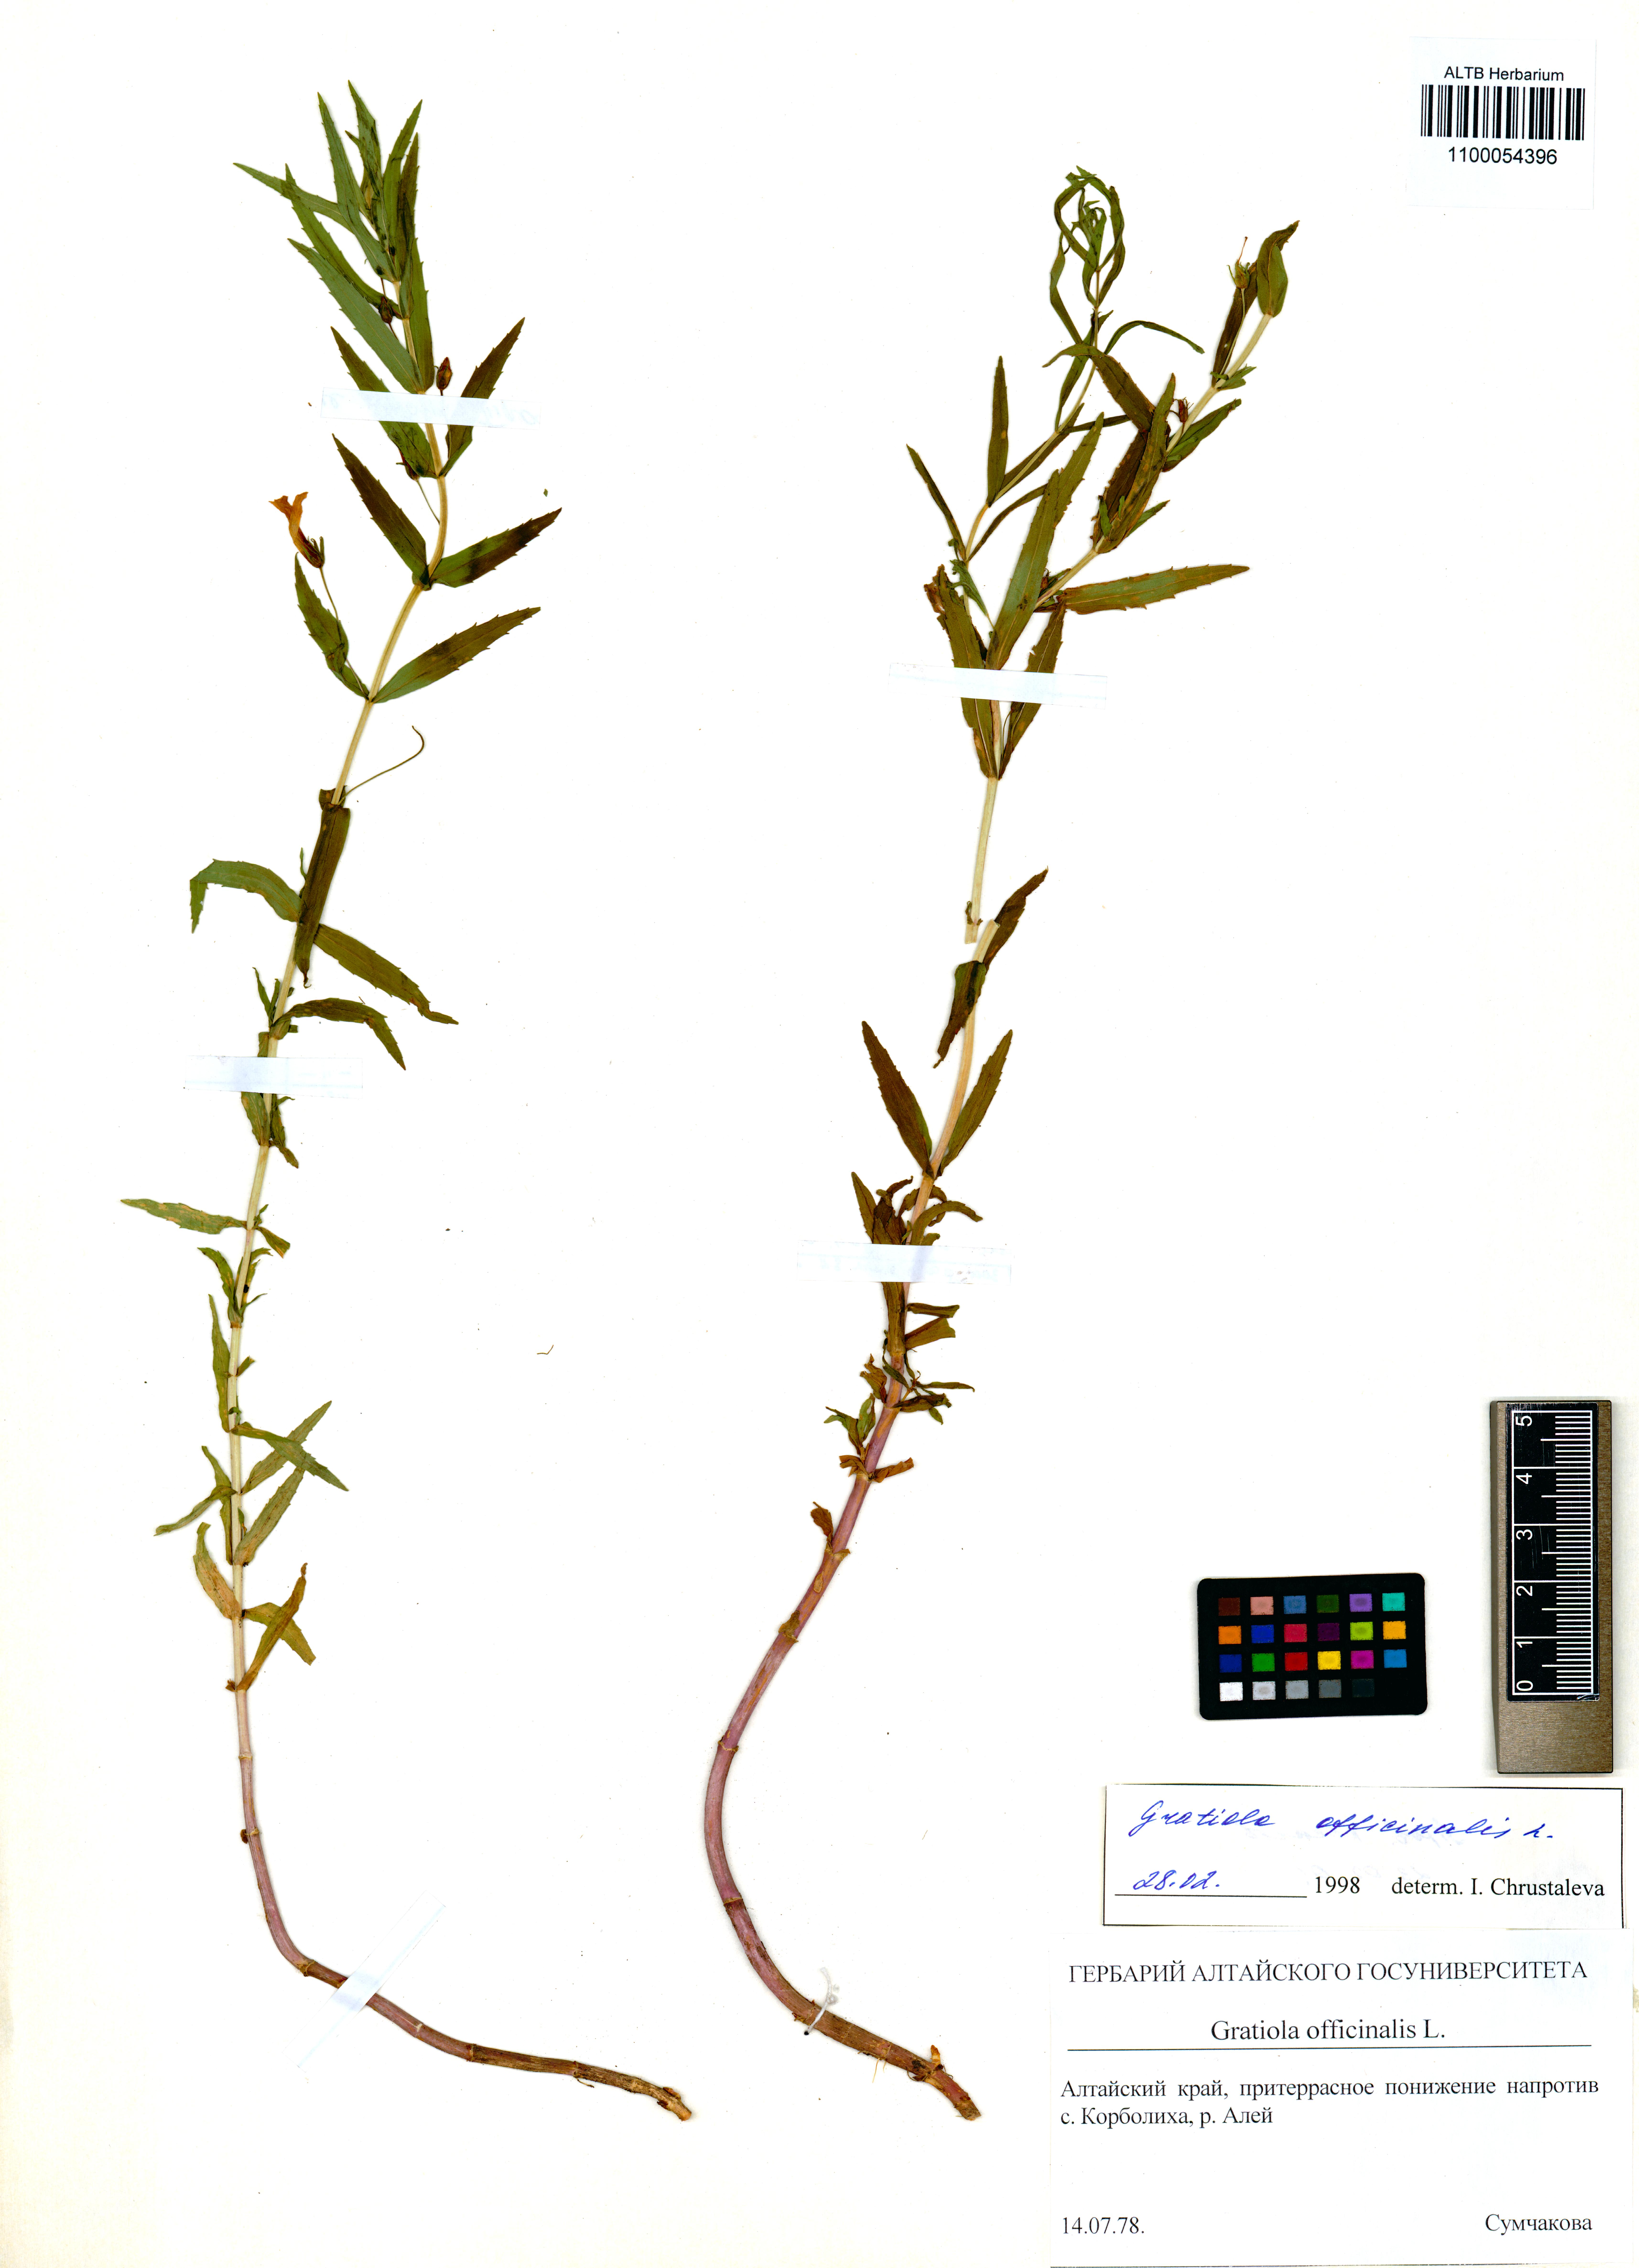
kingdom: Plantae
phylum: Tracheophyta
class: Magnoliopsida
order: Lamiales
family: Plantaginaceae
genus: Gratiola
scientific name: Gratiola officinalis
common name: Gratiola
